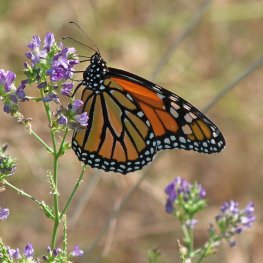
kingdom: Animalia
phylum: Arthropoda
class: Insecta
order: Lepidoptera
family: Nymphalidae
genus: Danaus
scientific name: Danaus plexippus
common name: Monarch
